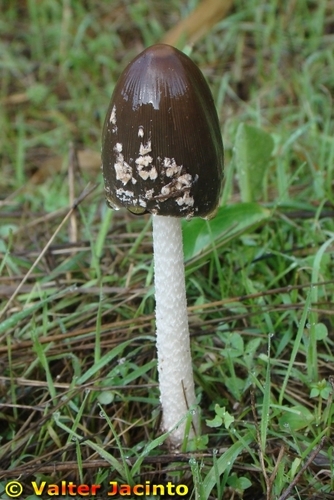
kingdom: Fungi
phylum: Basidiomycota
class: Agaricomycetes
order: Agaricales
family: Psathyrellaceae
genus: Coprinopsis
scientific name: Coprinopsis picacea
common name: Magpie inkcap
